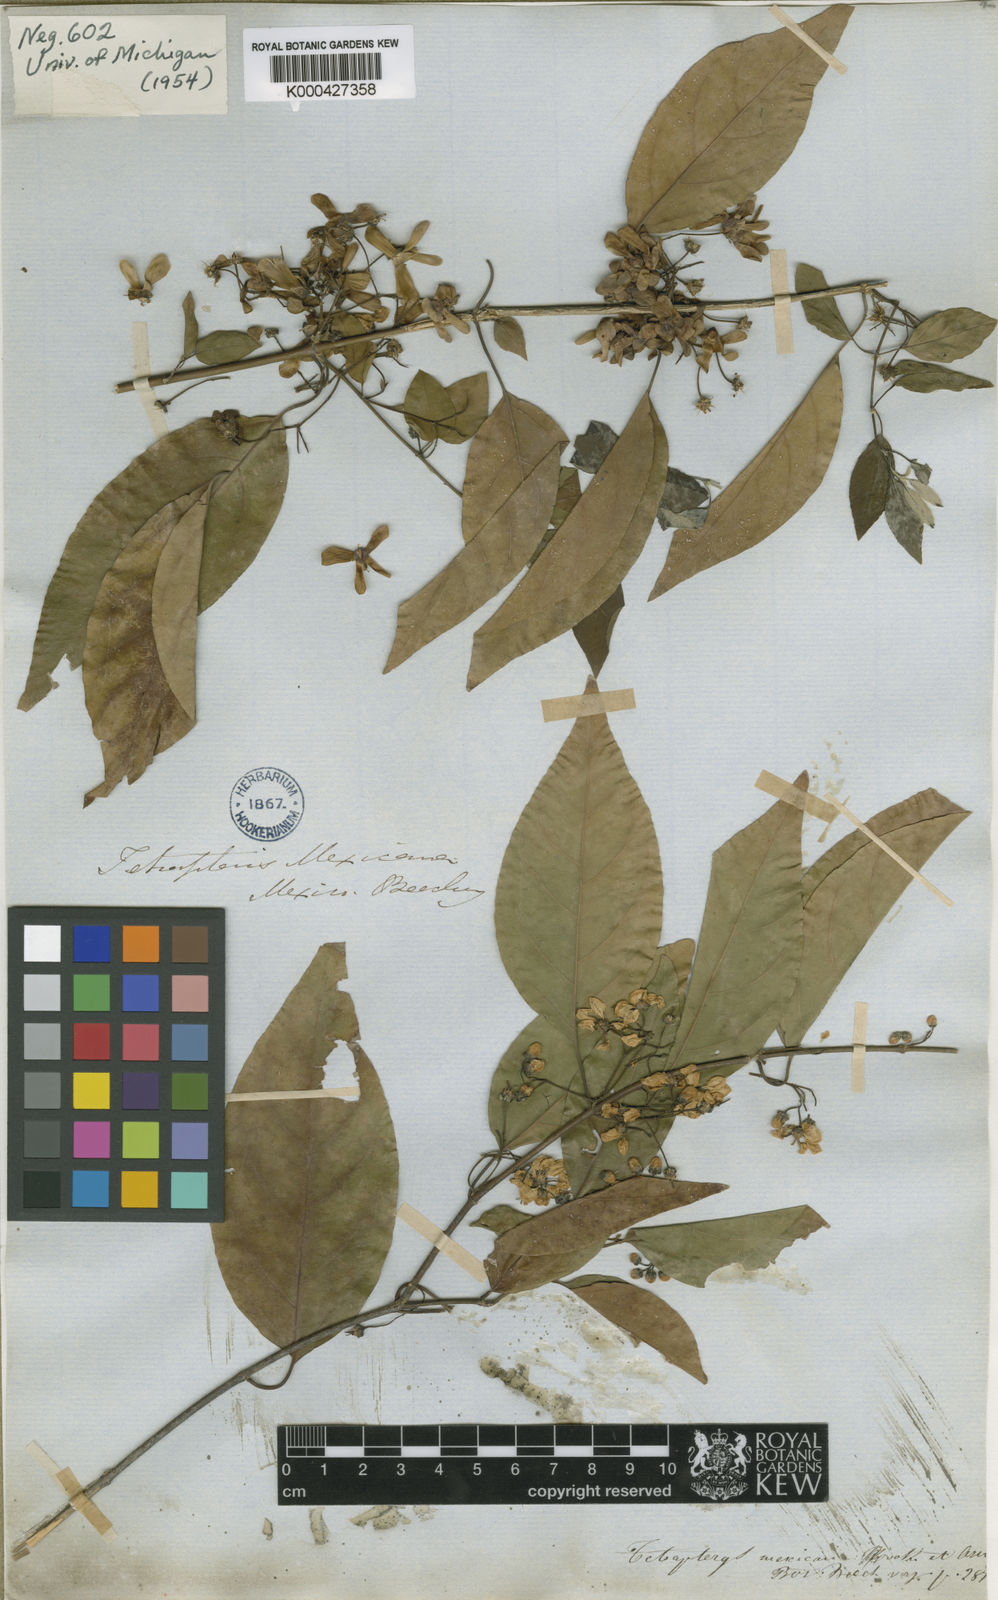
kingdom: Plantae
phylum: Tracheophyta
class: Magnoliopsida
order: Malpighiales
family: Malpighiaceae
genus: Tetrapterys
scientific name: Tetrapterys mexicana
